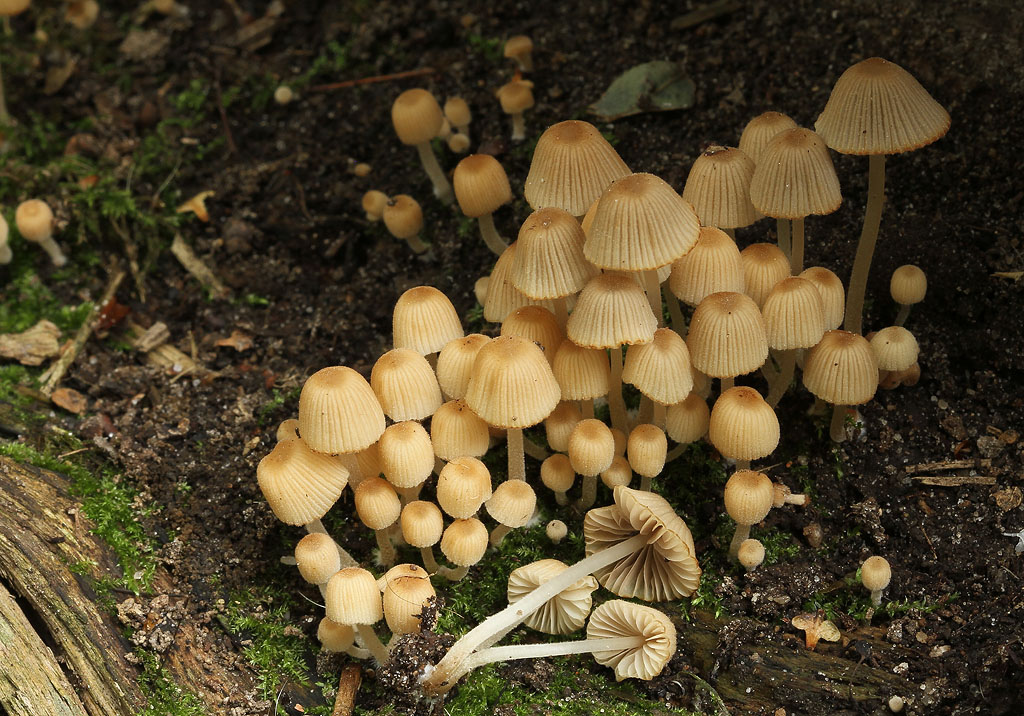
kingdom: Fungi
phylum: Basidiomycota
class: Agaricomycetes
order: Agaricales
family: Psathyrellaceae
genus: Coprinellus
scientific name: Coprinellus disseminatus
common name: bredsået blækhat
